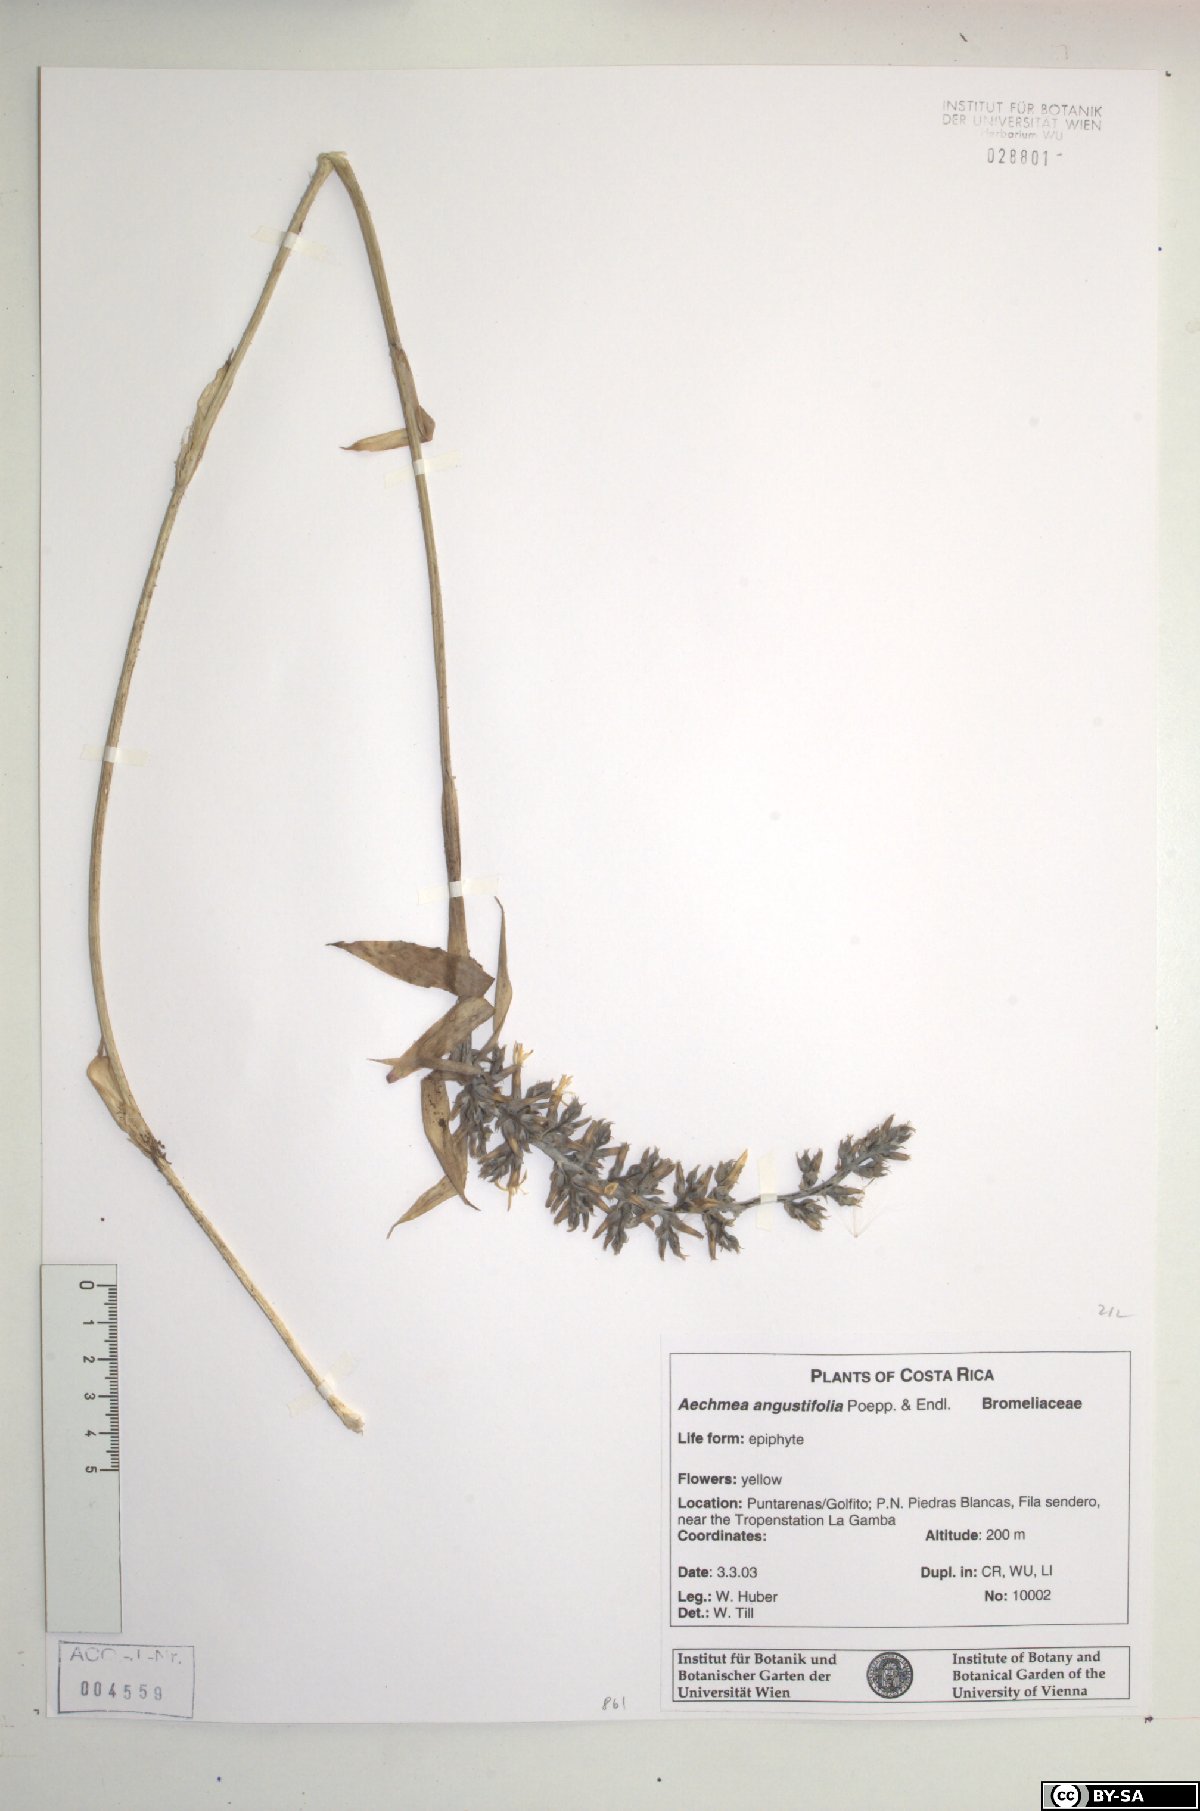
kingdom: Plantae
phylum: Tracheophyta
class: Liliopsida
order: Poales
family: Bromeliaceae
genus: Aechmea
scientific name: Aechmea angustifolia
